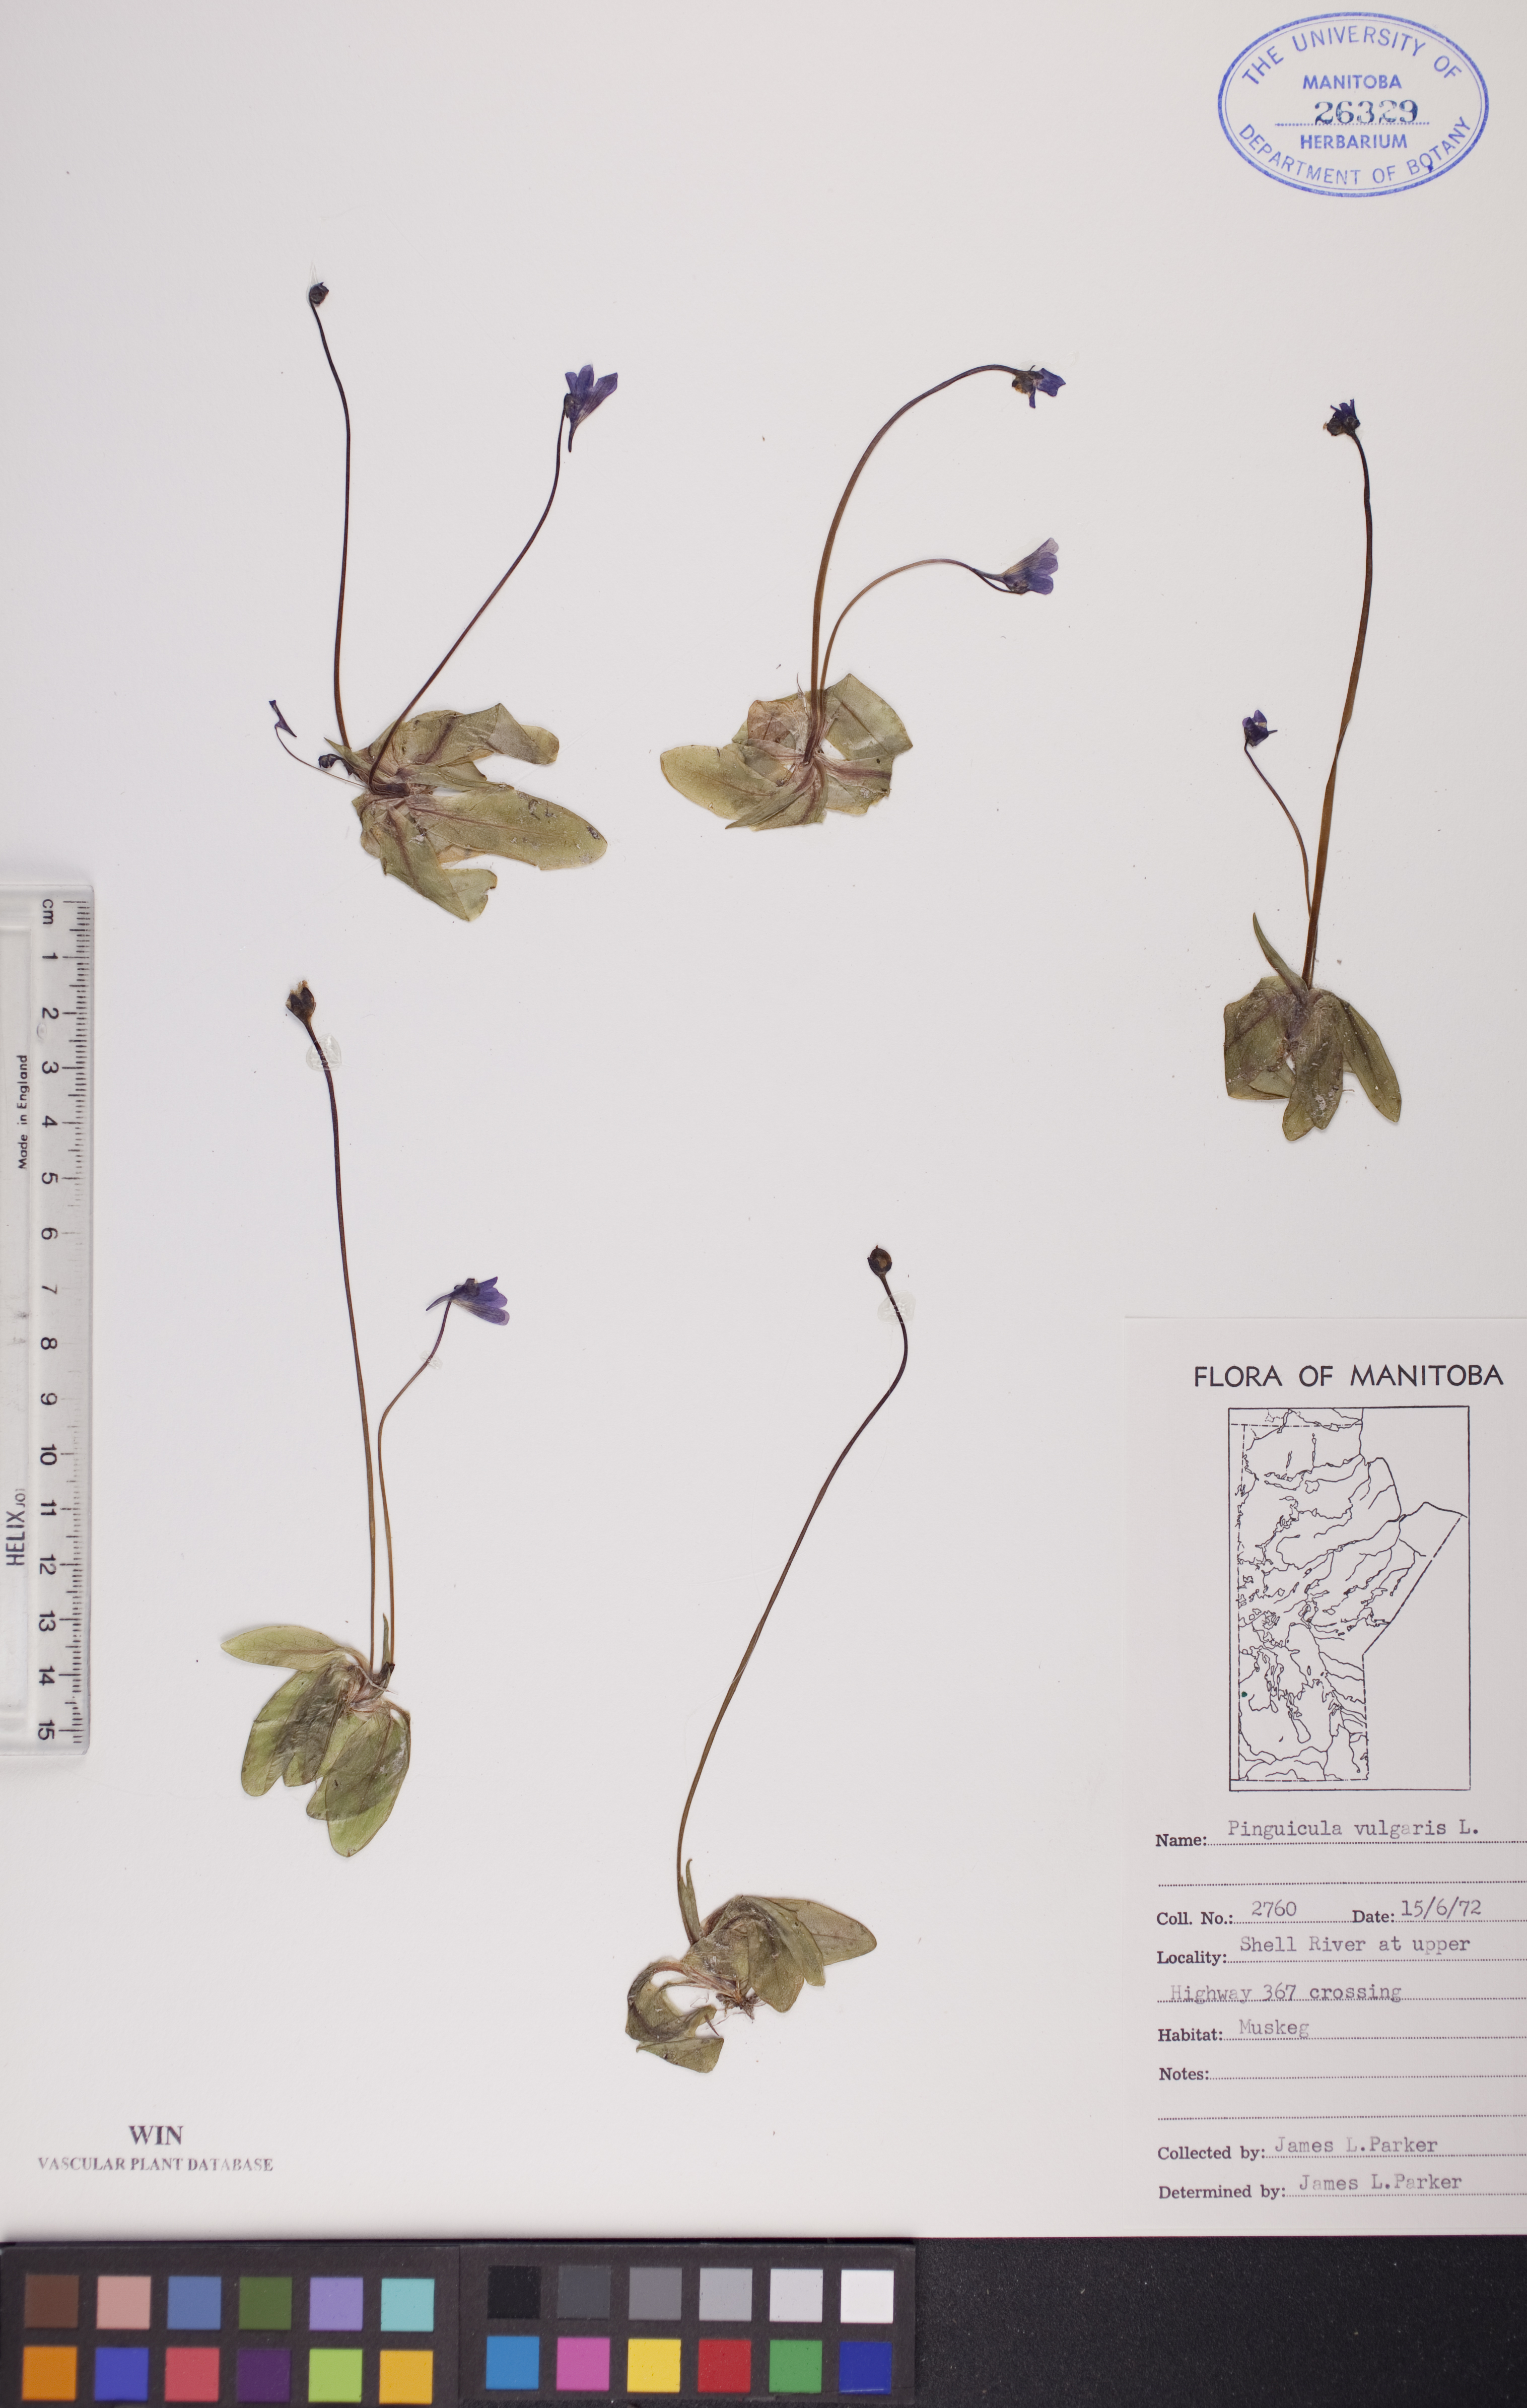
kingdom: Plantae
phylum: Tracheophyta
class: Magnoliopsida
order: Lamiales
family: Lentibulariaceae
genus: Pinguicula
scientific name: Pinguicula vulgaris
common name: Common butterwort
